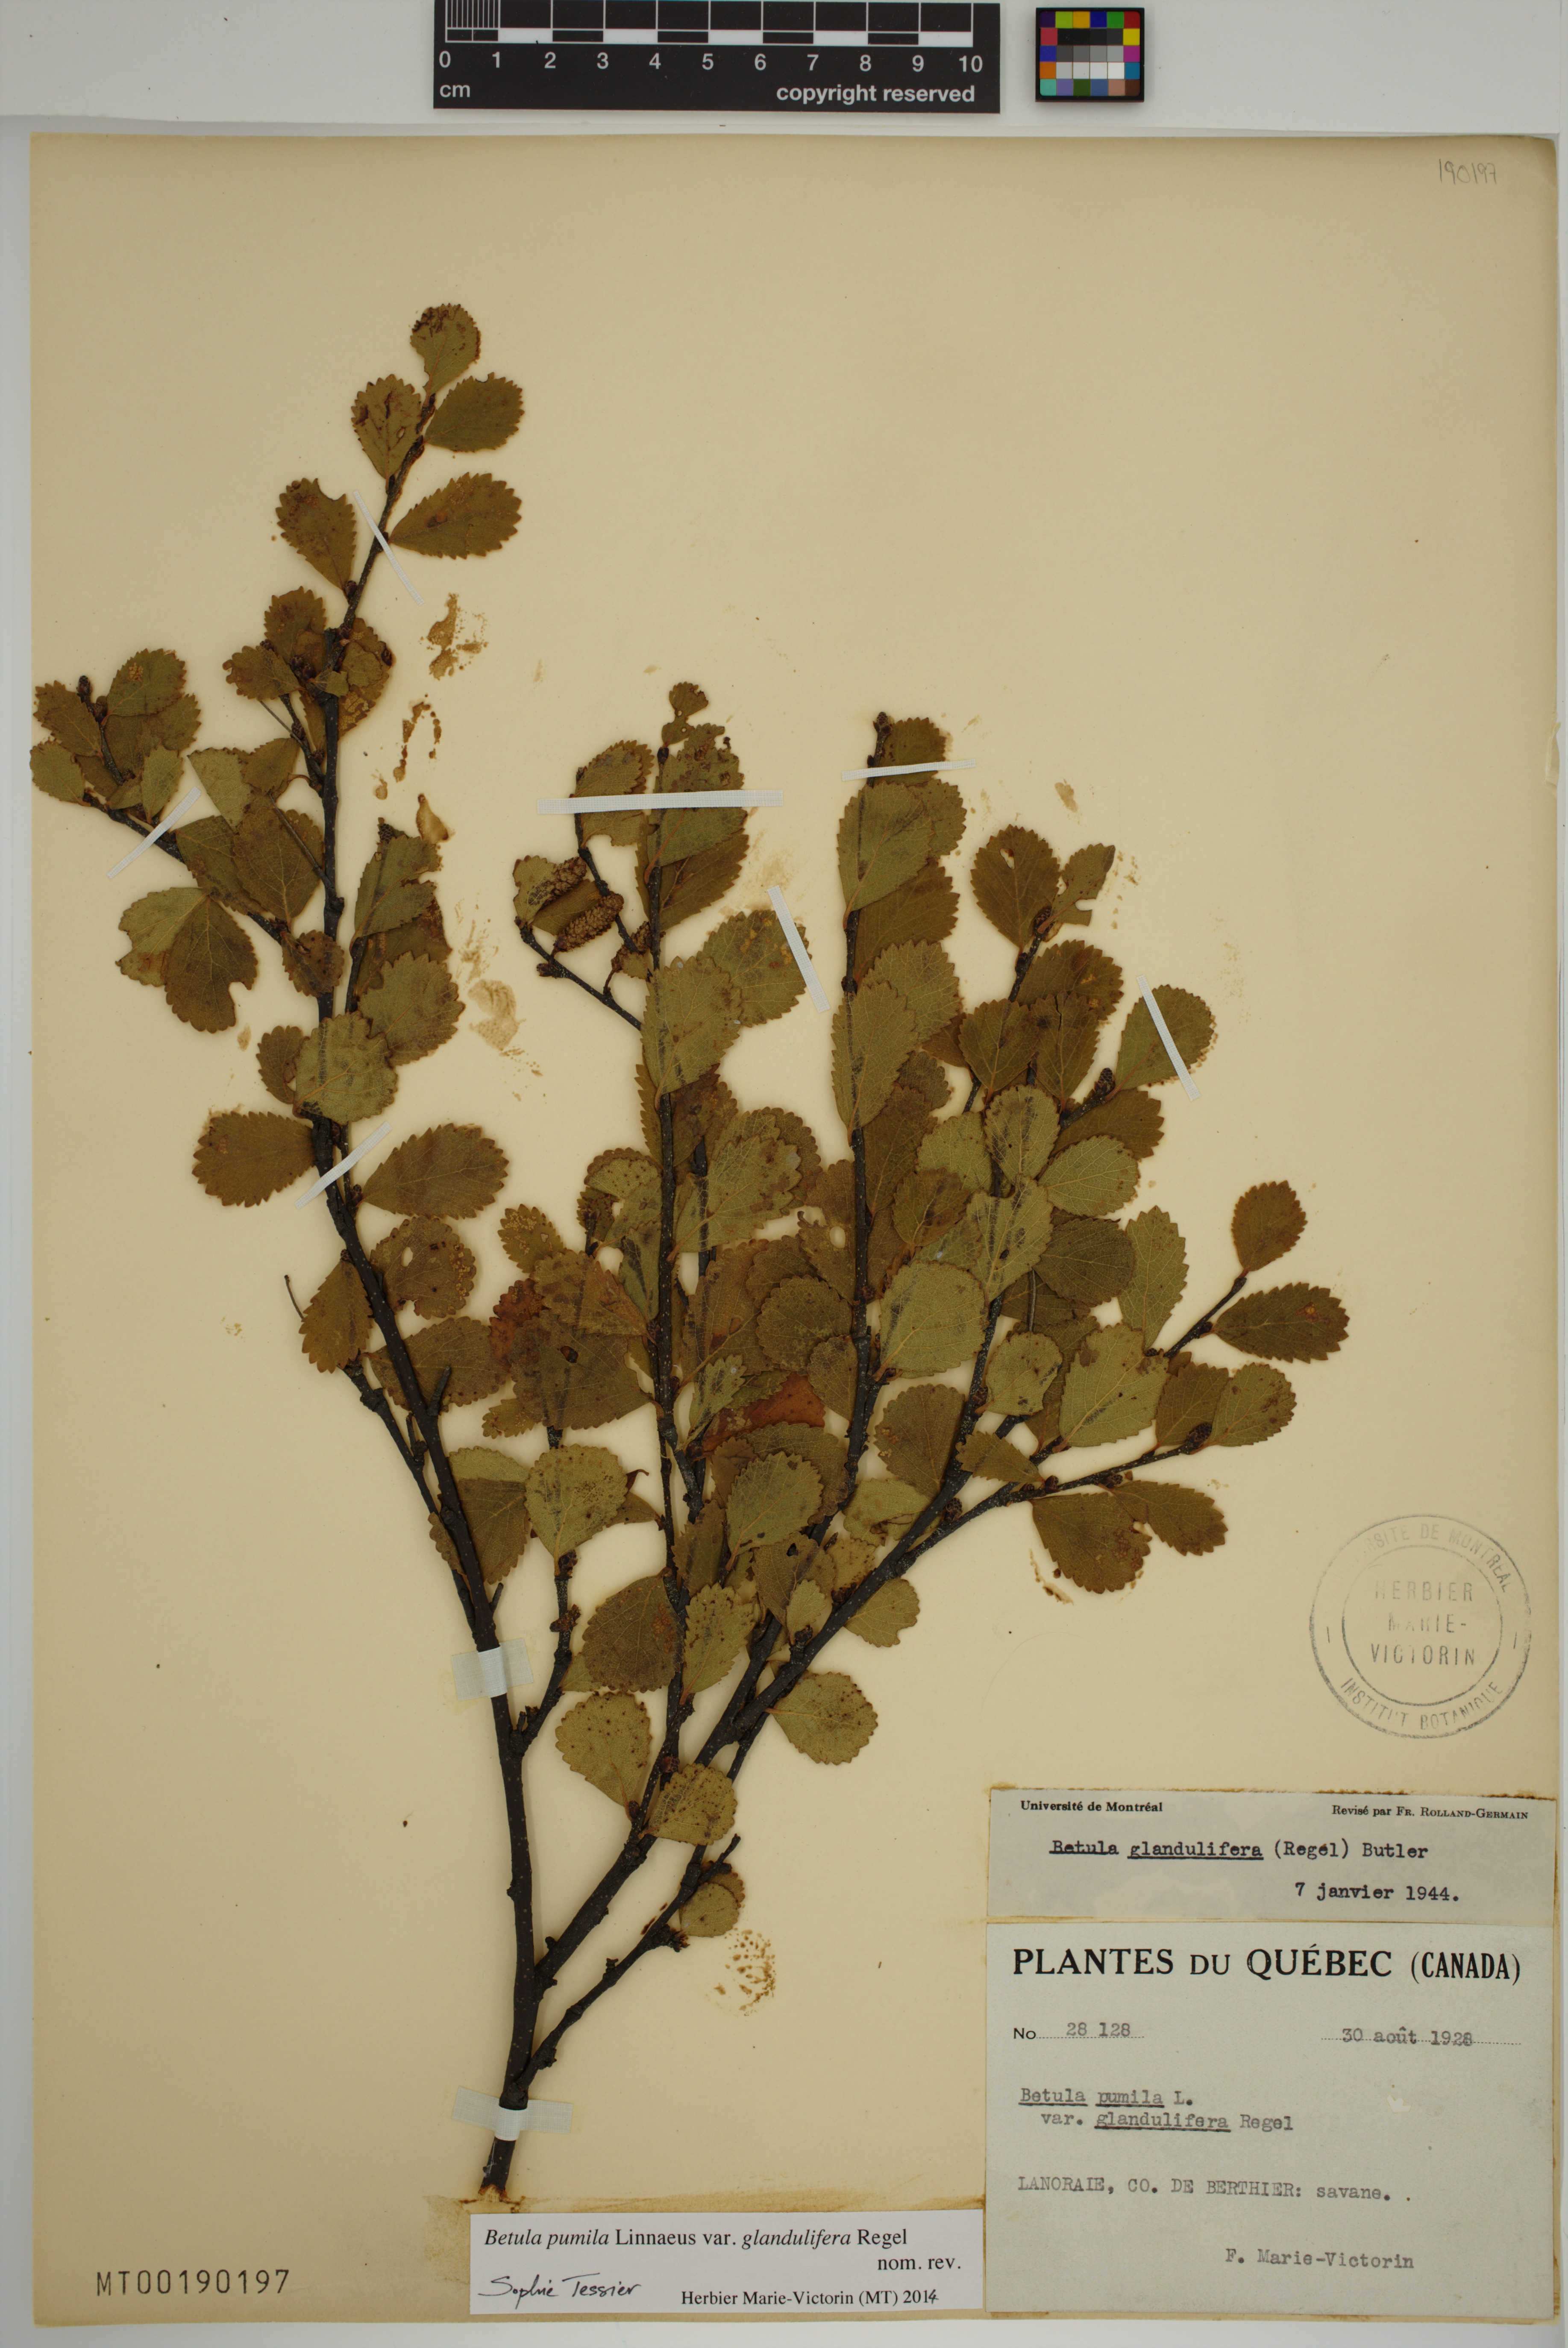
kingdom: Plantae
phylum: Tracheophyta
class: Magnoliopsida
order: Fagales
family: Betulaceae
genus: Betula
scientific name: Betula pumila
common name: Bog birch
